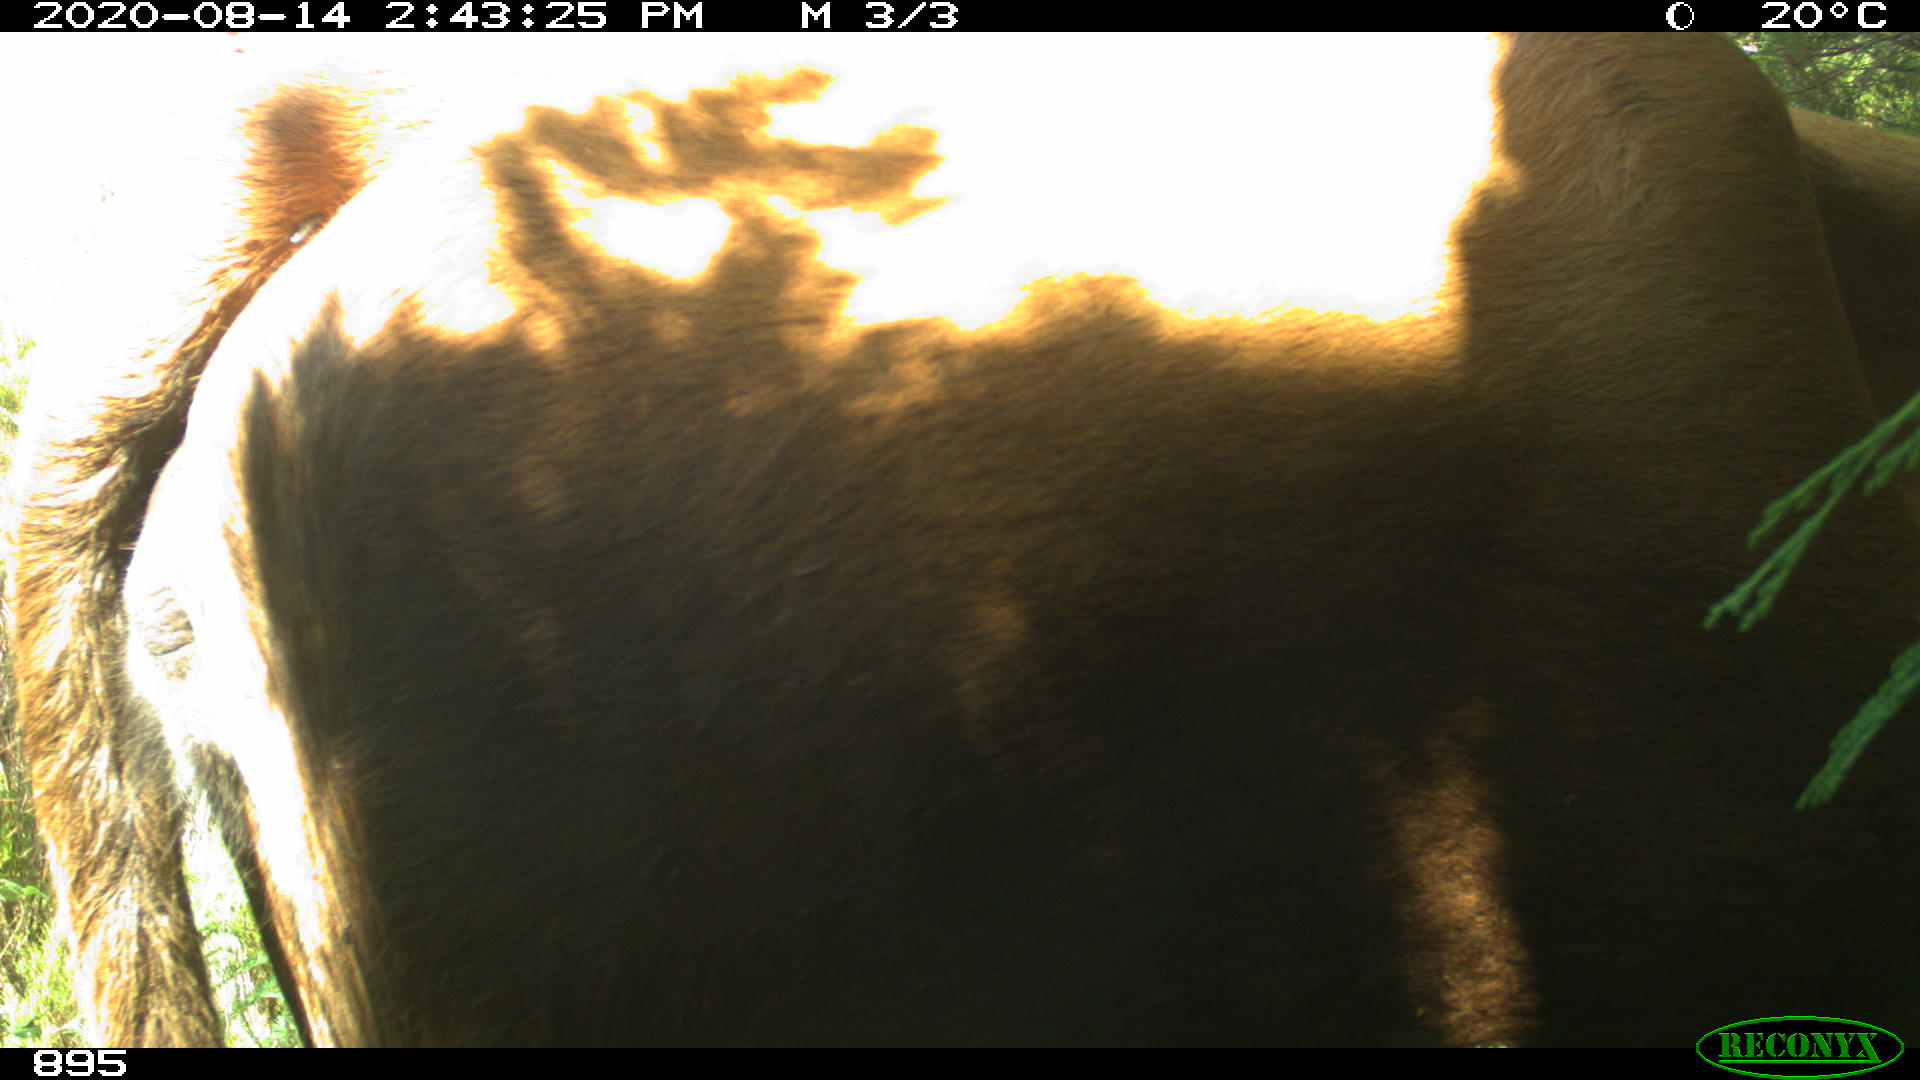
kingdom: Animalia
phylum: Chordata
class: Mammalia
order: Artiodactyla
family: Bovidae
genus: Bos
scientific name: Bos taurus
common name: Domesticated cattle
